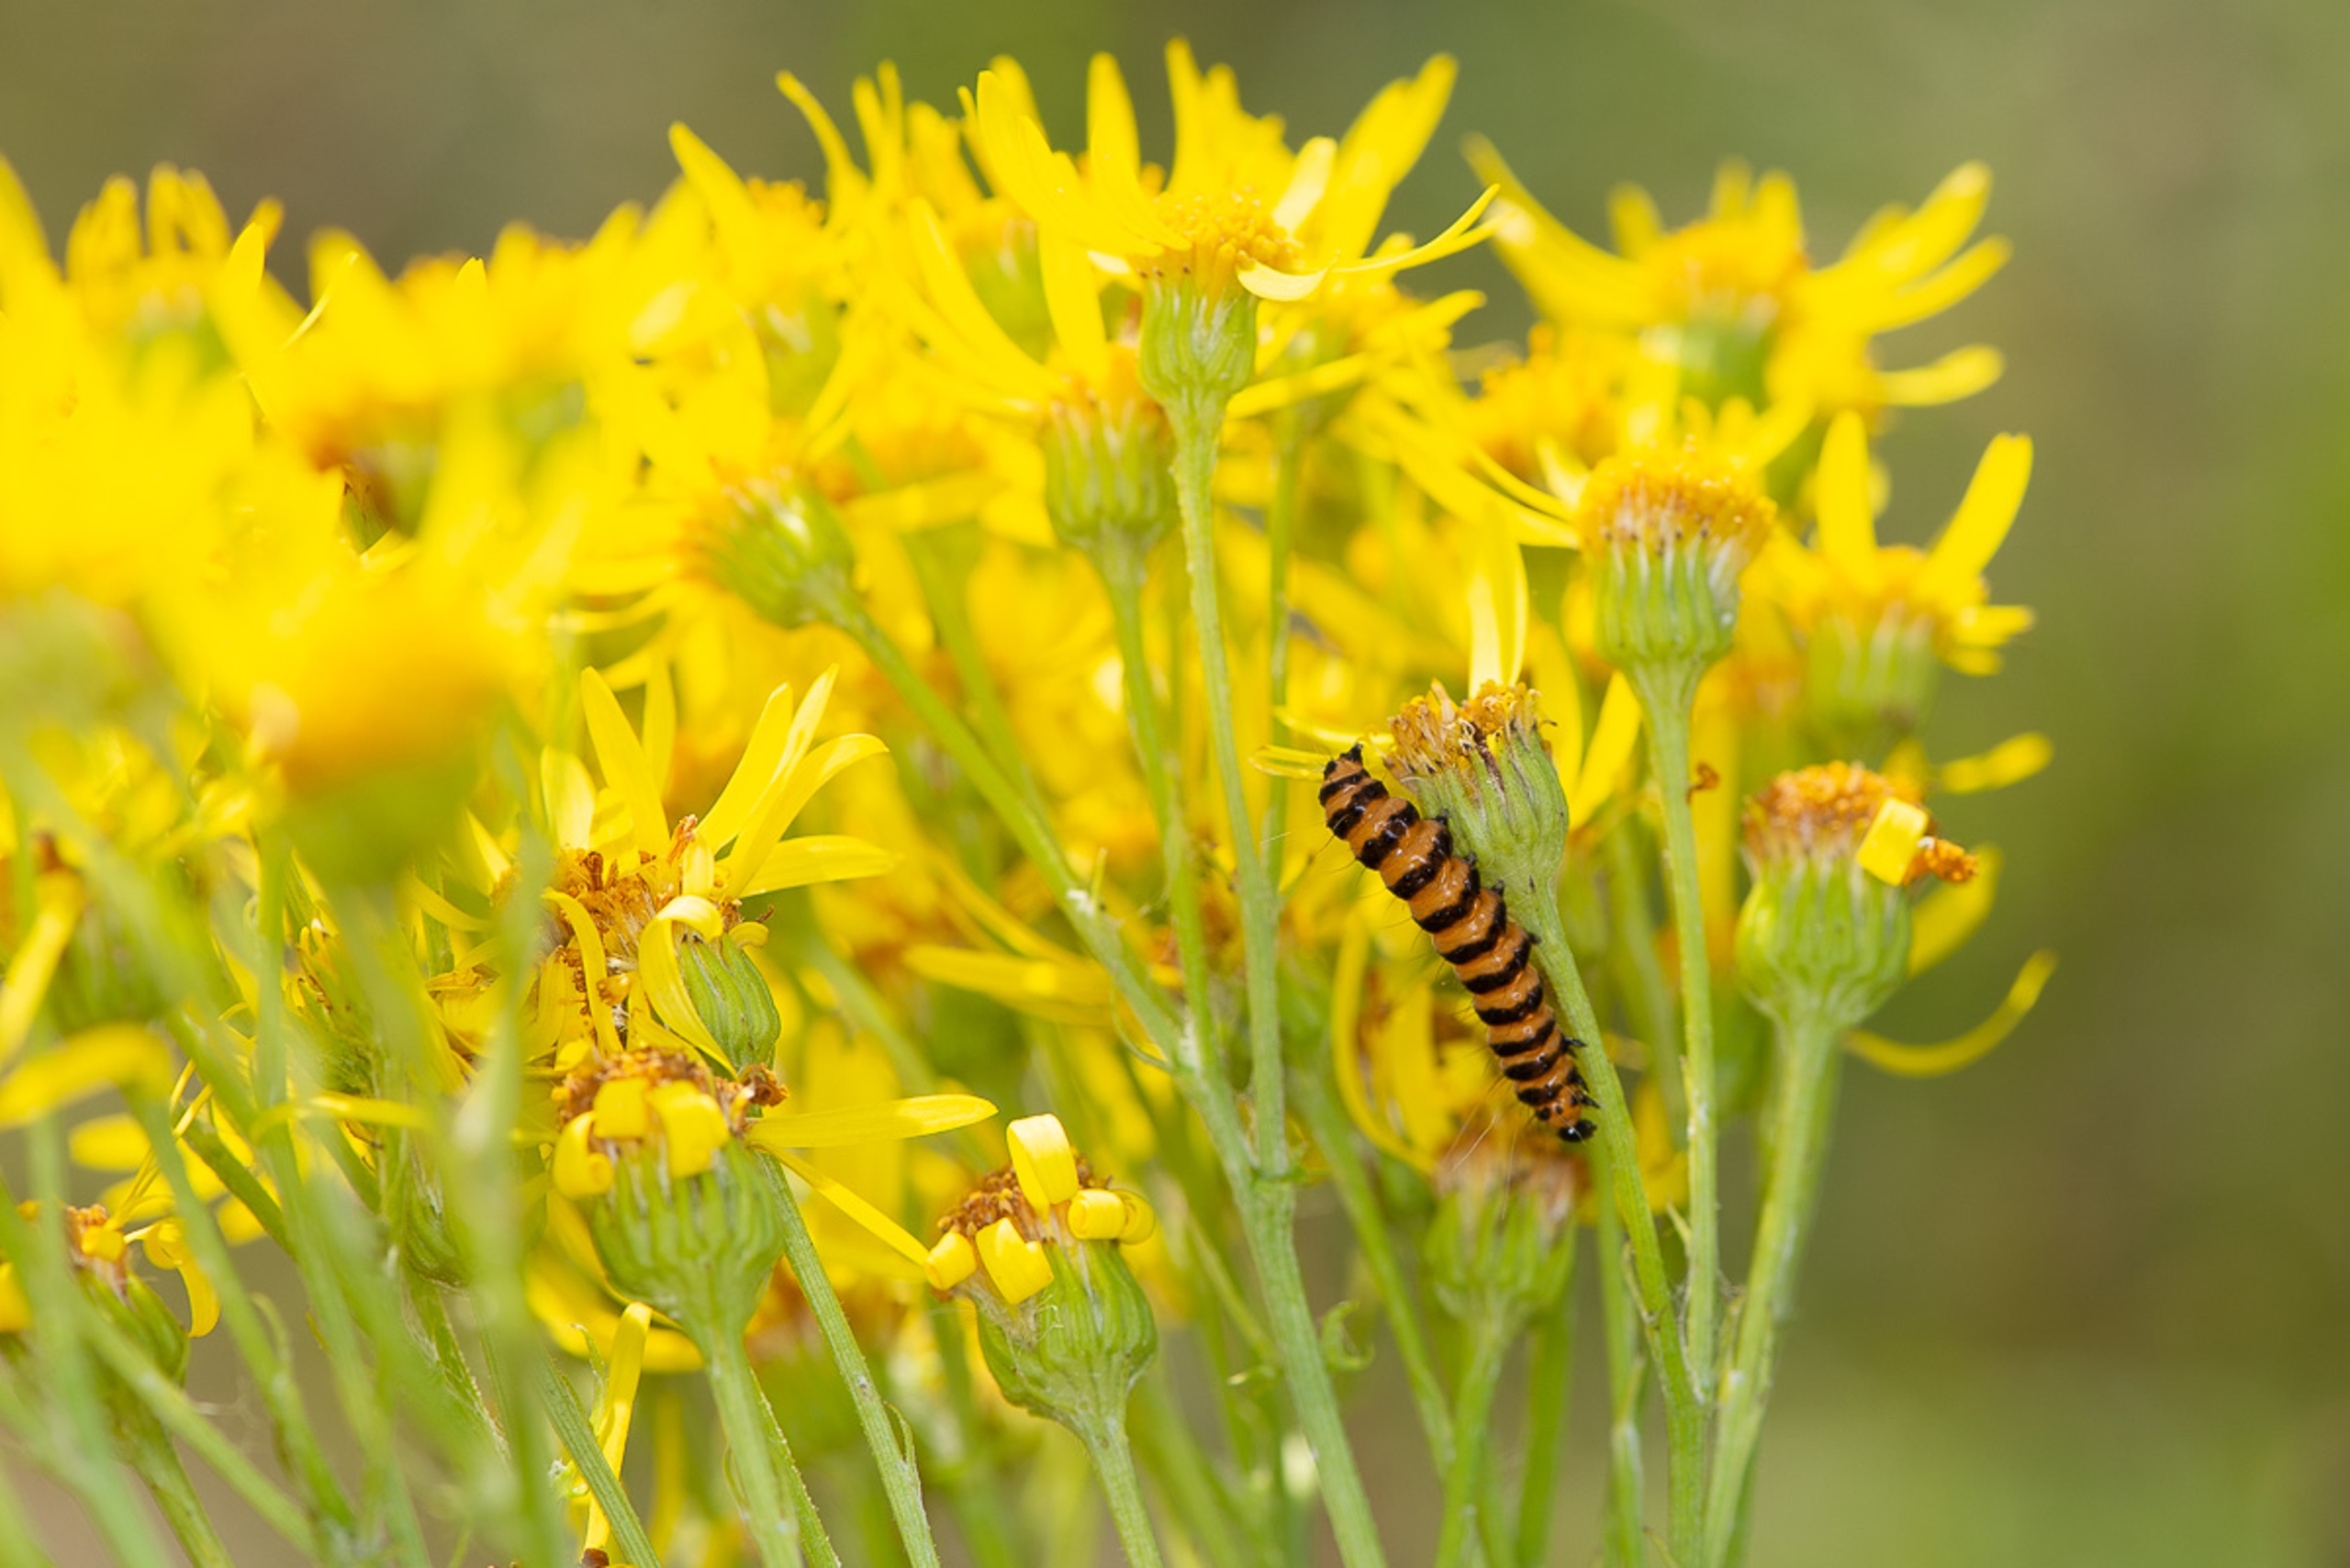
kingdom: Plantae
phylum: Tracheophyta
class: Magnoliopsida
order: Asterales
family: Asteraceae
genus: Jacobaea
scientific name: Jacobaea vulgaris
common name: Eng-brandbæger
